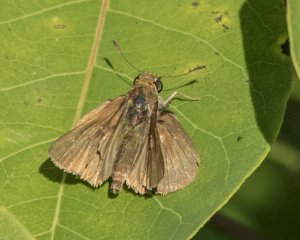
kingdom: Animalia
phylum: Arthropoda
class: Insecta
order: Lepidoptera
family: Hesperiidae
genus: Euphyes
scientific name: Euphyes vestris
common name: Dun Skipper
